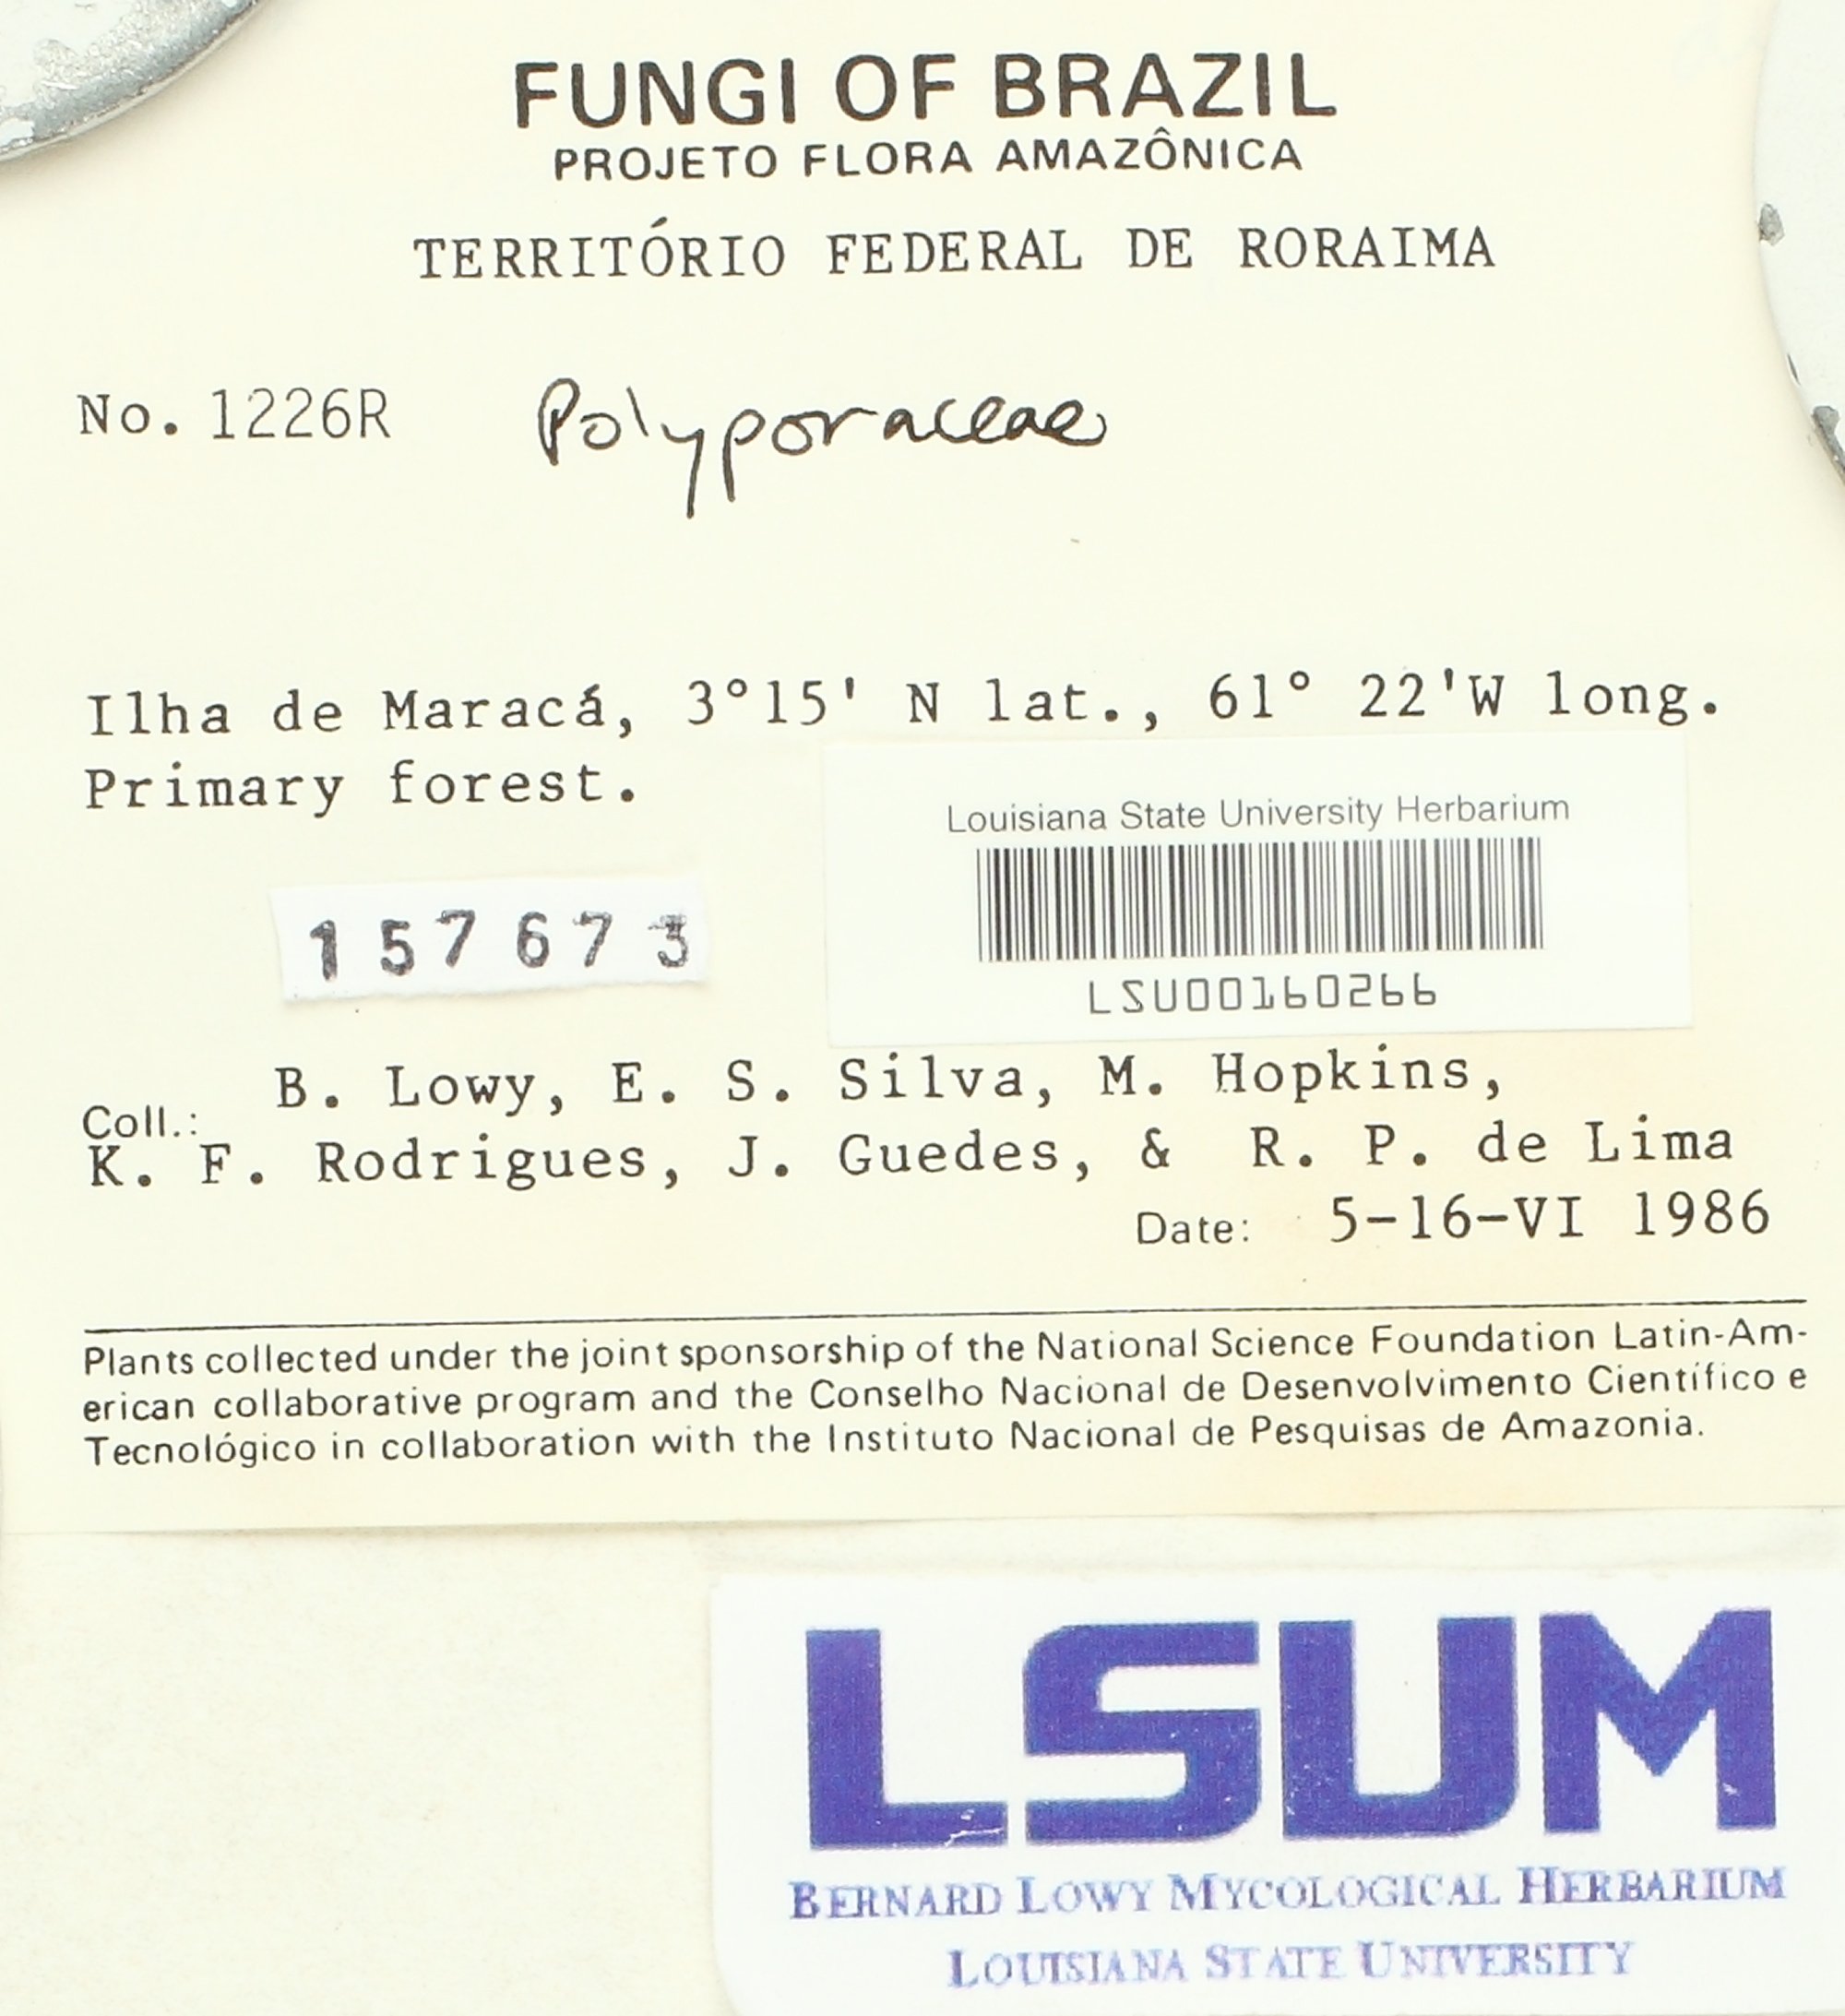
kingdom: Fungi
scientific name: Fungi
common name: Fungi
